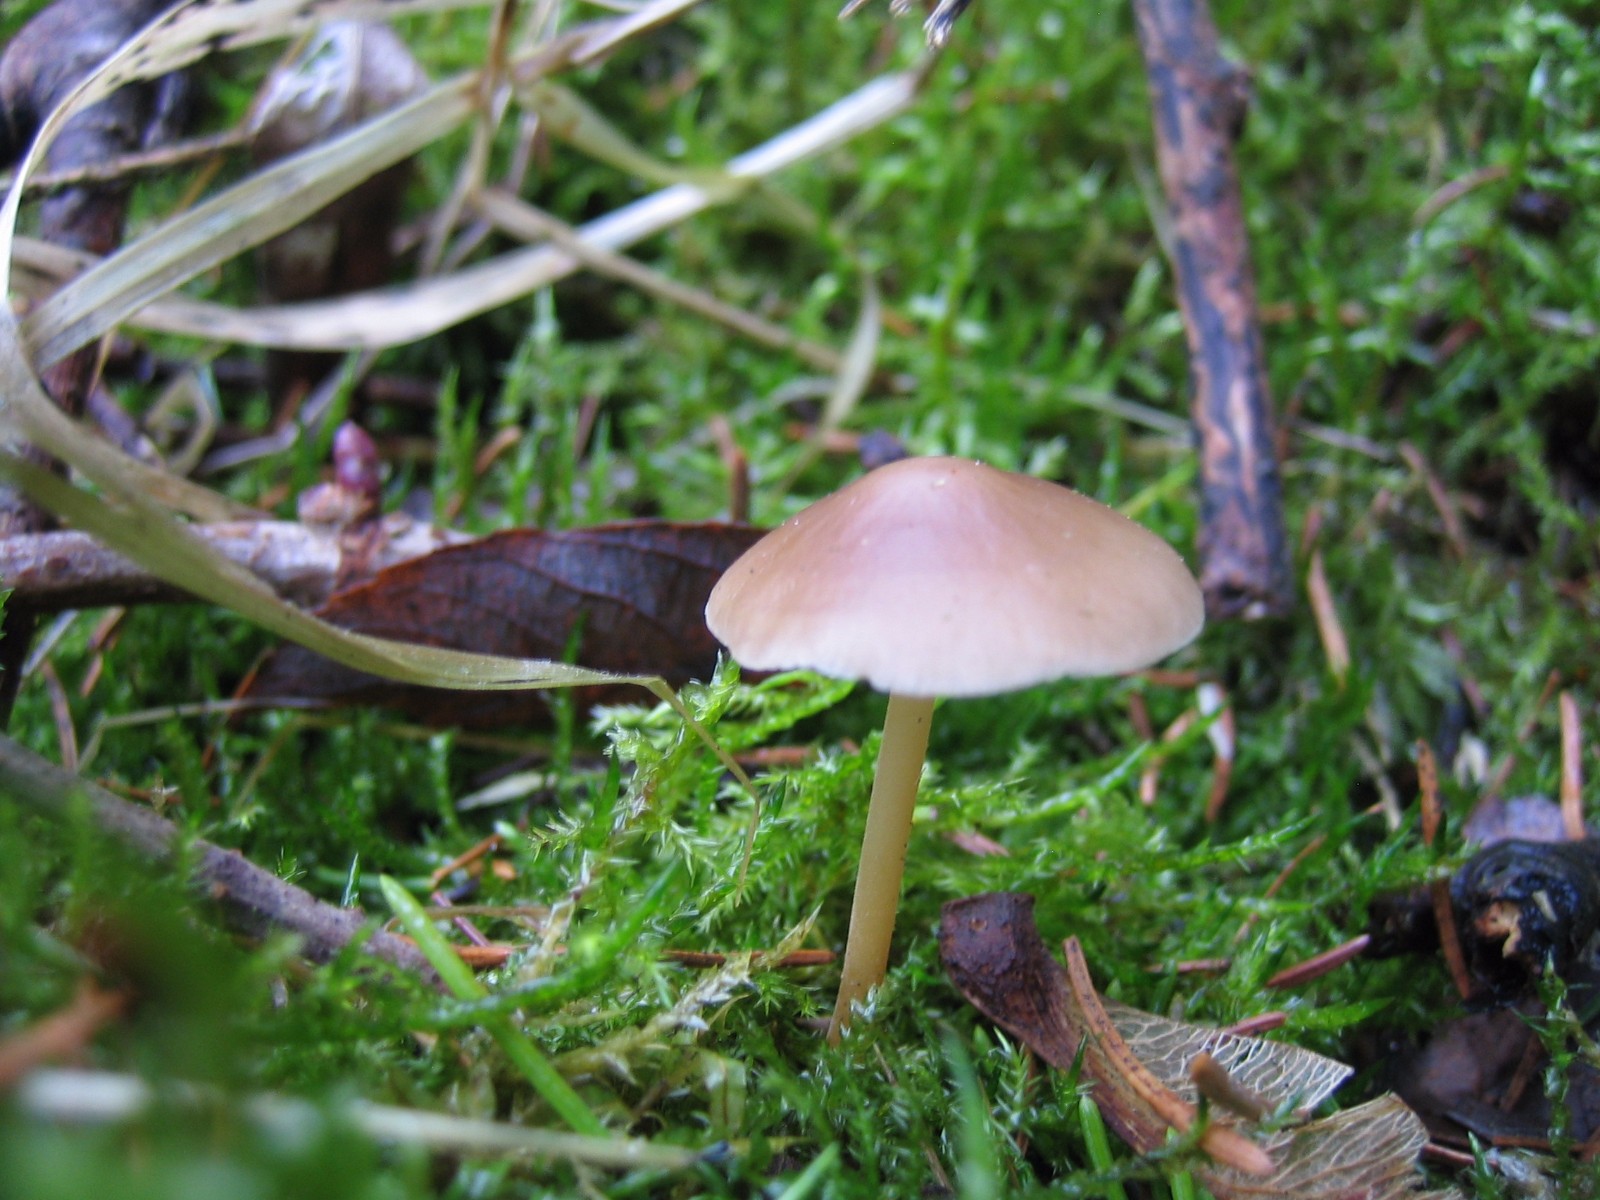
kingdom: Fungi
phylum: Basidiomycota
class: Agaricomycetes
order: Agaricales
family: Physalacriaceae
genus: Strobilurus
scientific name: Strobilurus esculentus
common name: gran-koglehat
